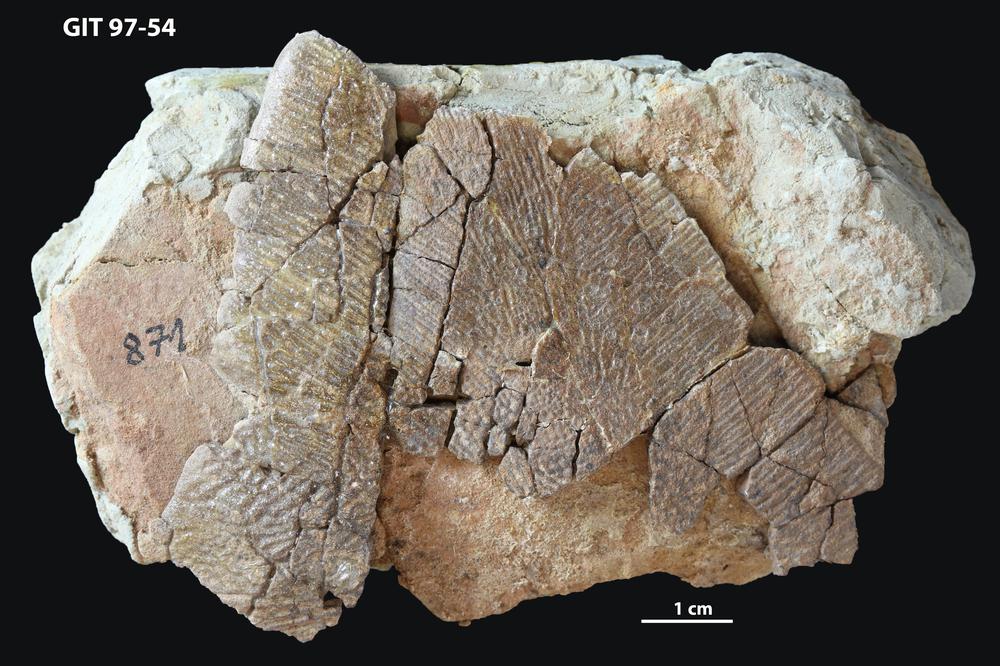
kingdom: Animalia
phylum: Chordata
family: Holonematidae
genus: Holonema
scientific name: Holonema
